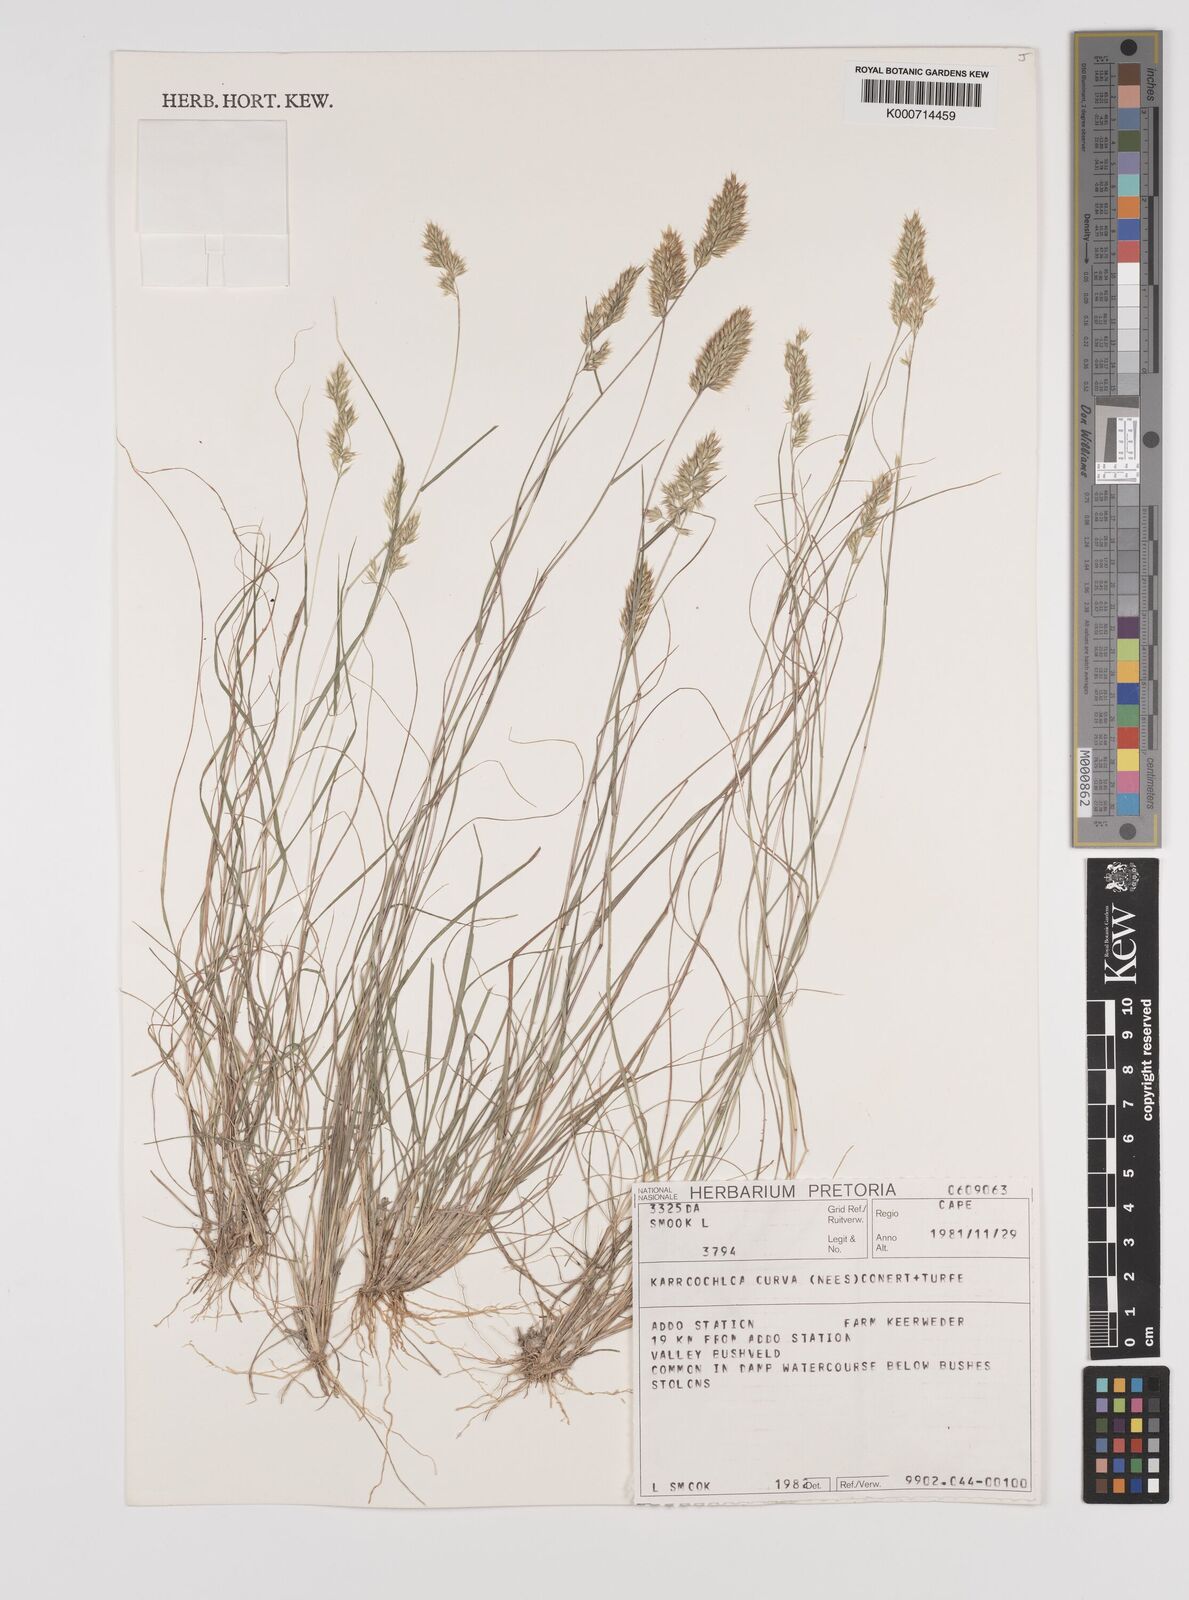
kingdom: Plantae
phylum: Tracheophyta
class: Liliopsida
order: Poales
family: Poaceae
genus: Rytidosperma
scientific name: Rytidosperma
